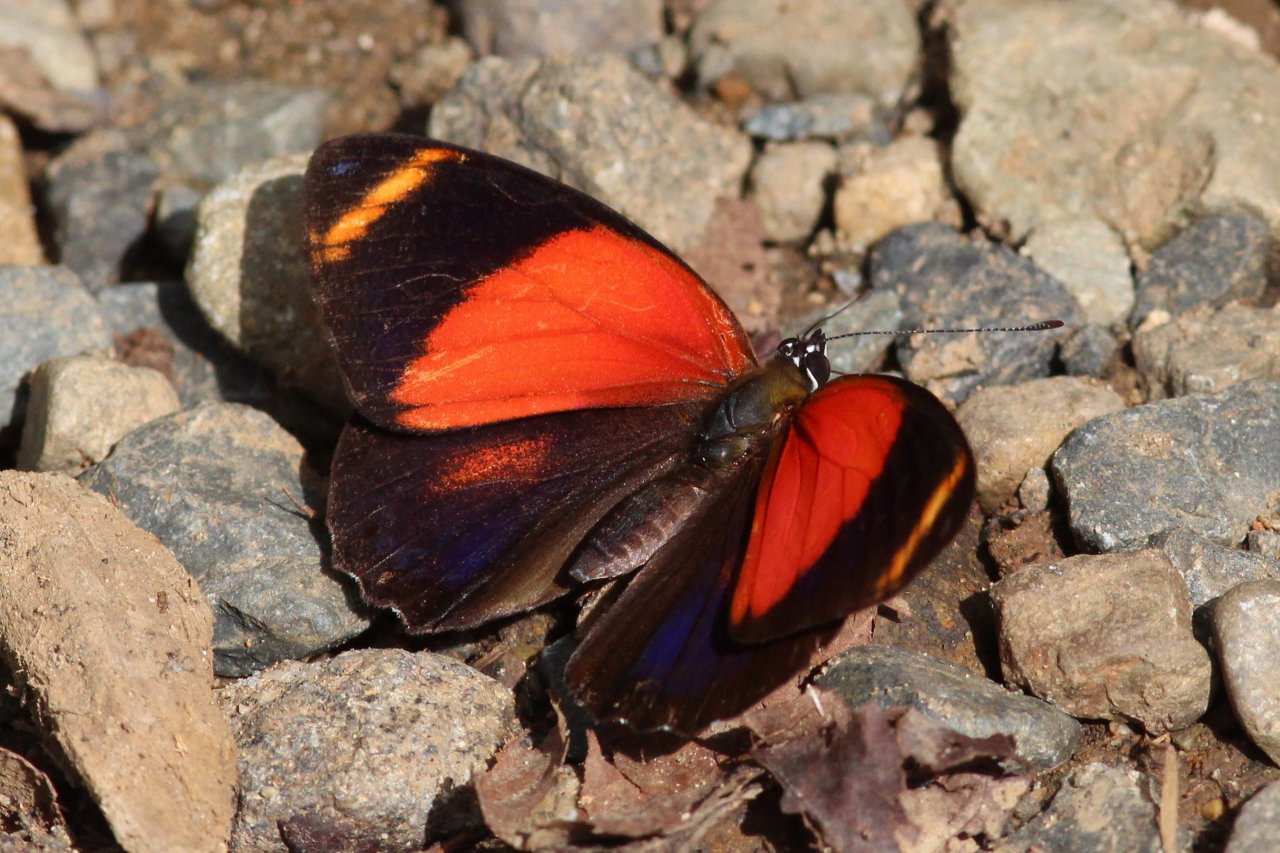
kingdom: Animalia
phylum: Arthropoda
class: Insecta
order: Lepidoptera
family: Nymphalidae
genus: Catagramma
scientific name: Catagramma texa
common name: Yellow-rimmed Eighty-eight
